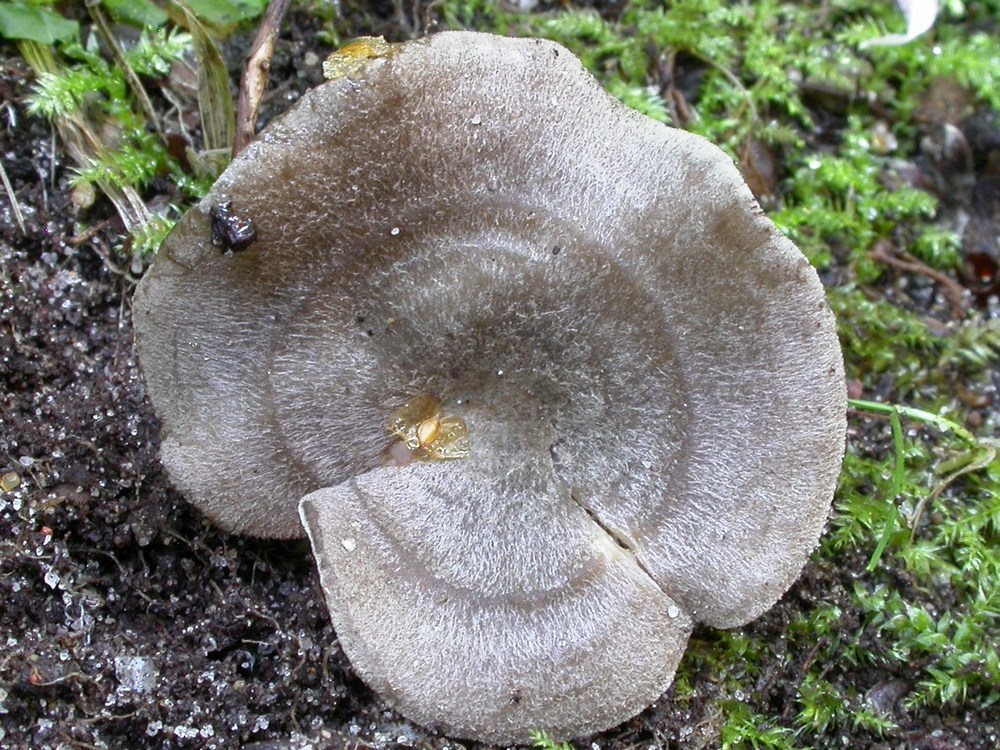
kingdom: Fungi
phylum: Basidiomycota
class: Agaricomycetes
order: Agaricales
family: Entolomataceae
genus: Entoloma
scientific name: Entoloma undatum
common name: bæltet rødblad
